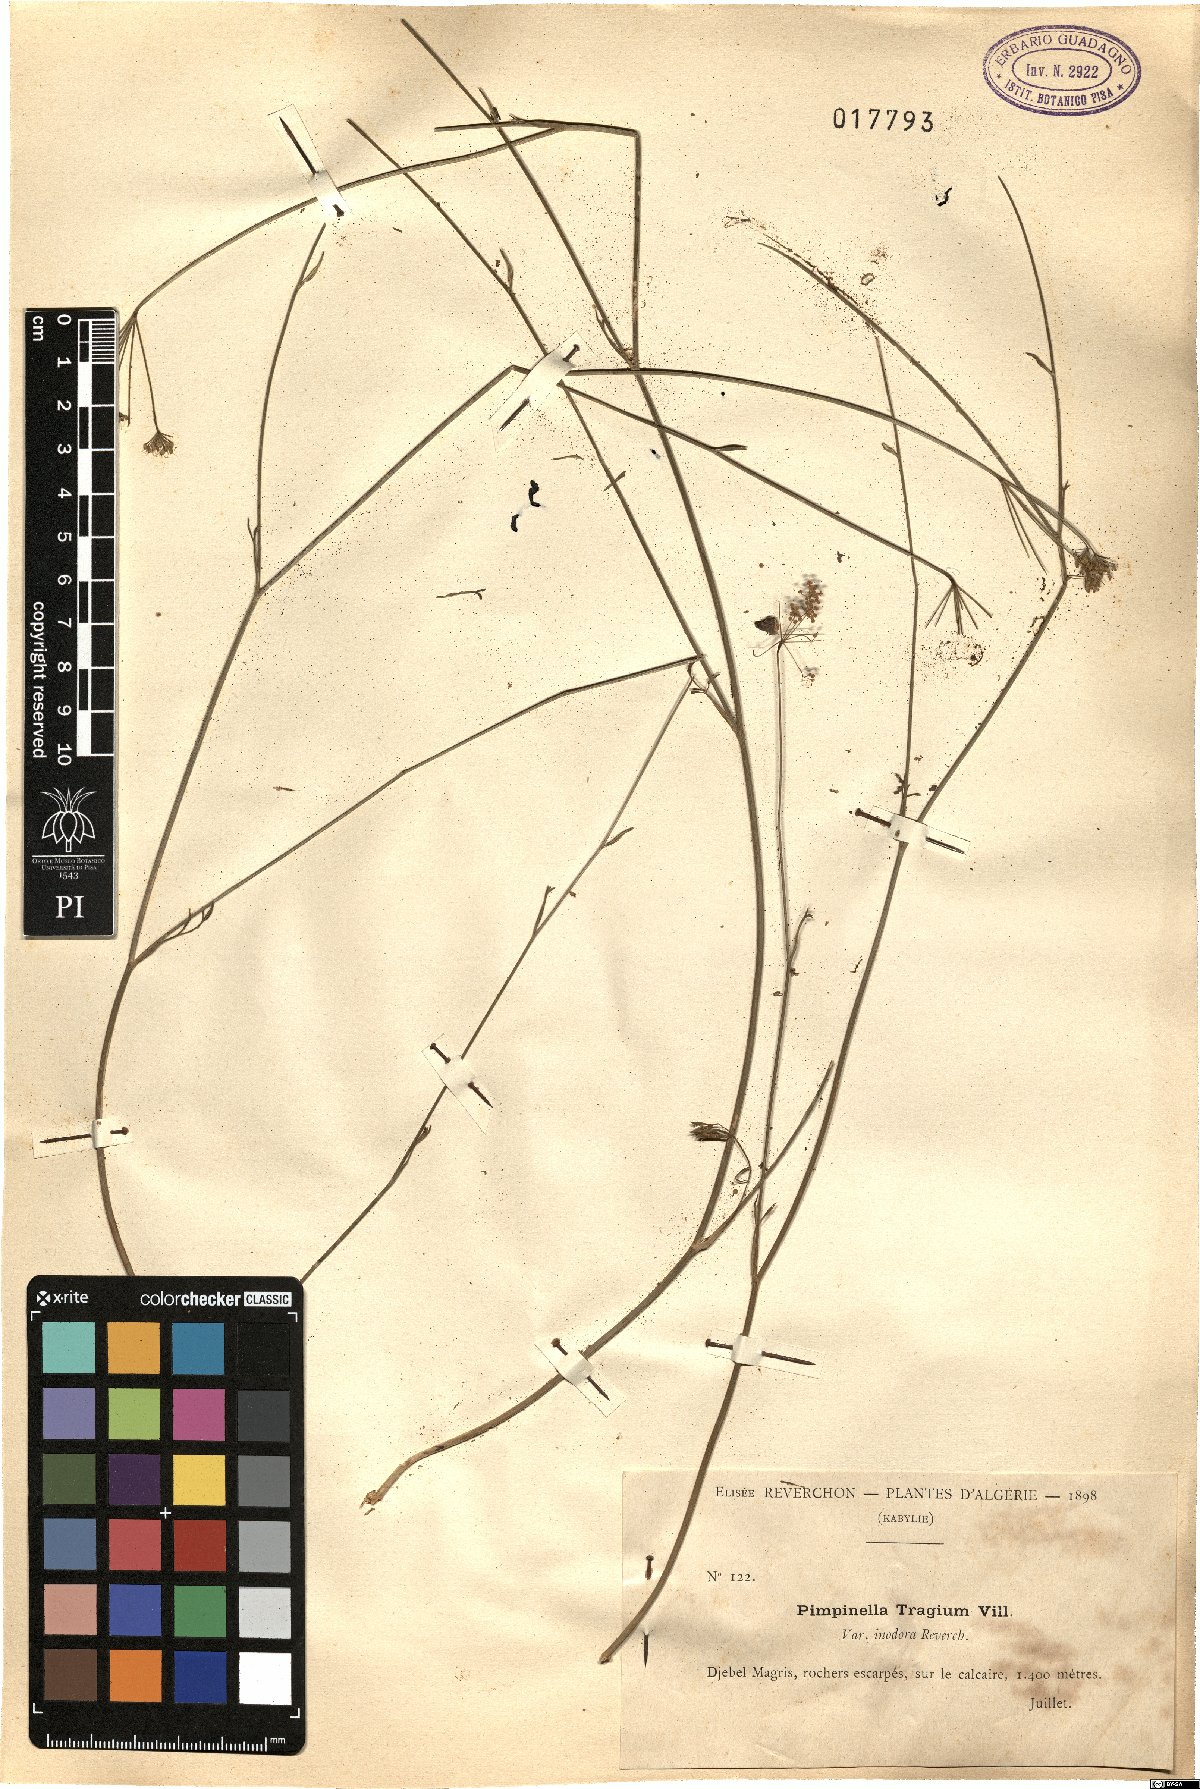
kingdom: Plantae
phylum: Tracheophyta
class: Magnoliopsida
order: Apiales
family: Apiaceae
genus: Pimpinella
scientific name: Pimpinella tragium
